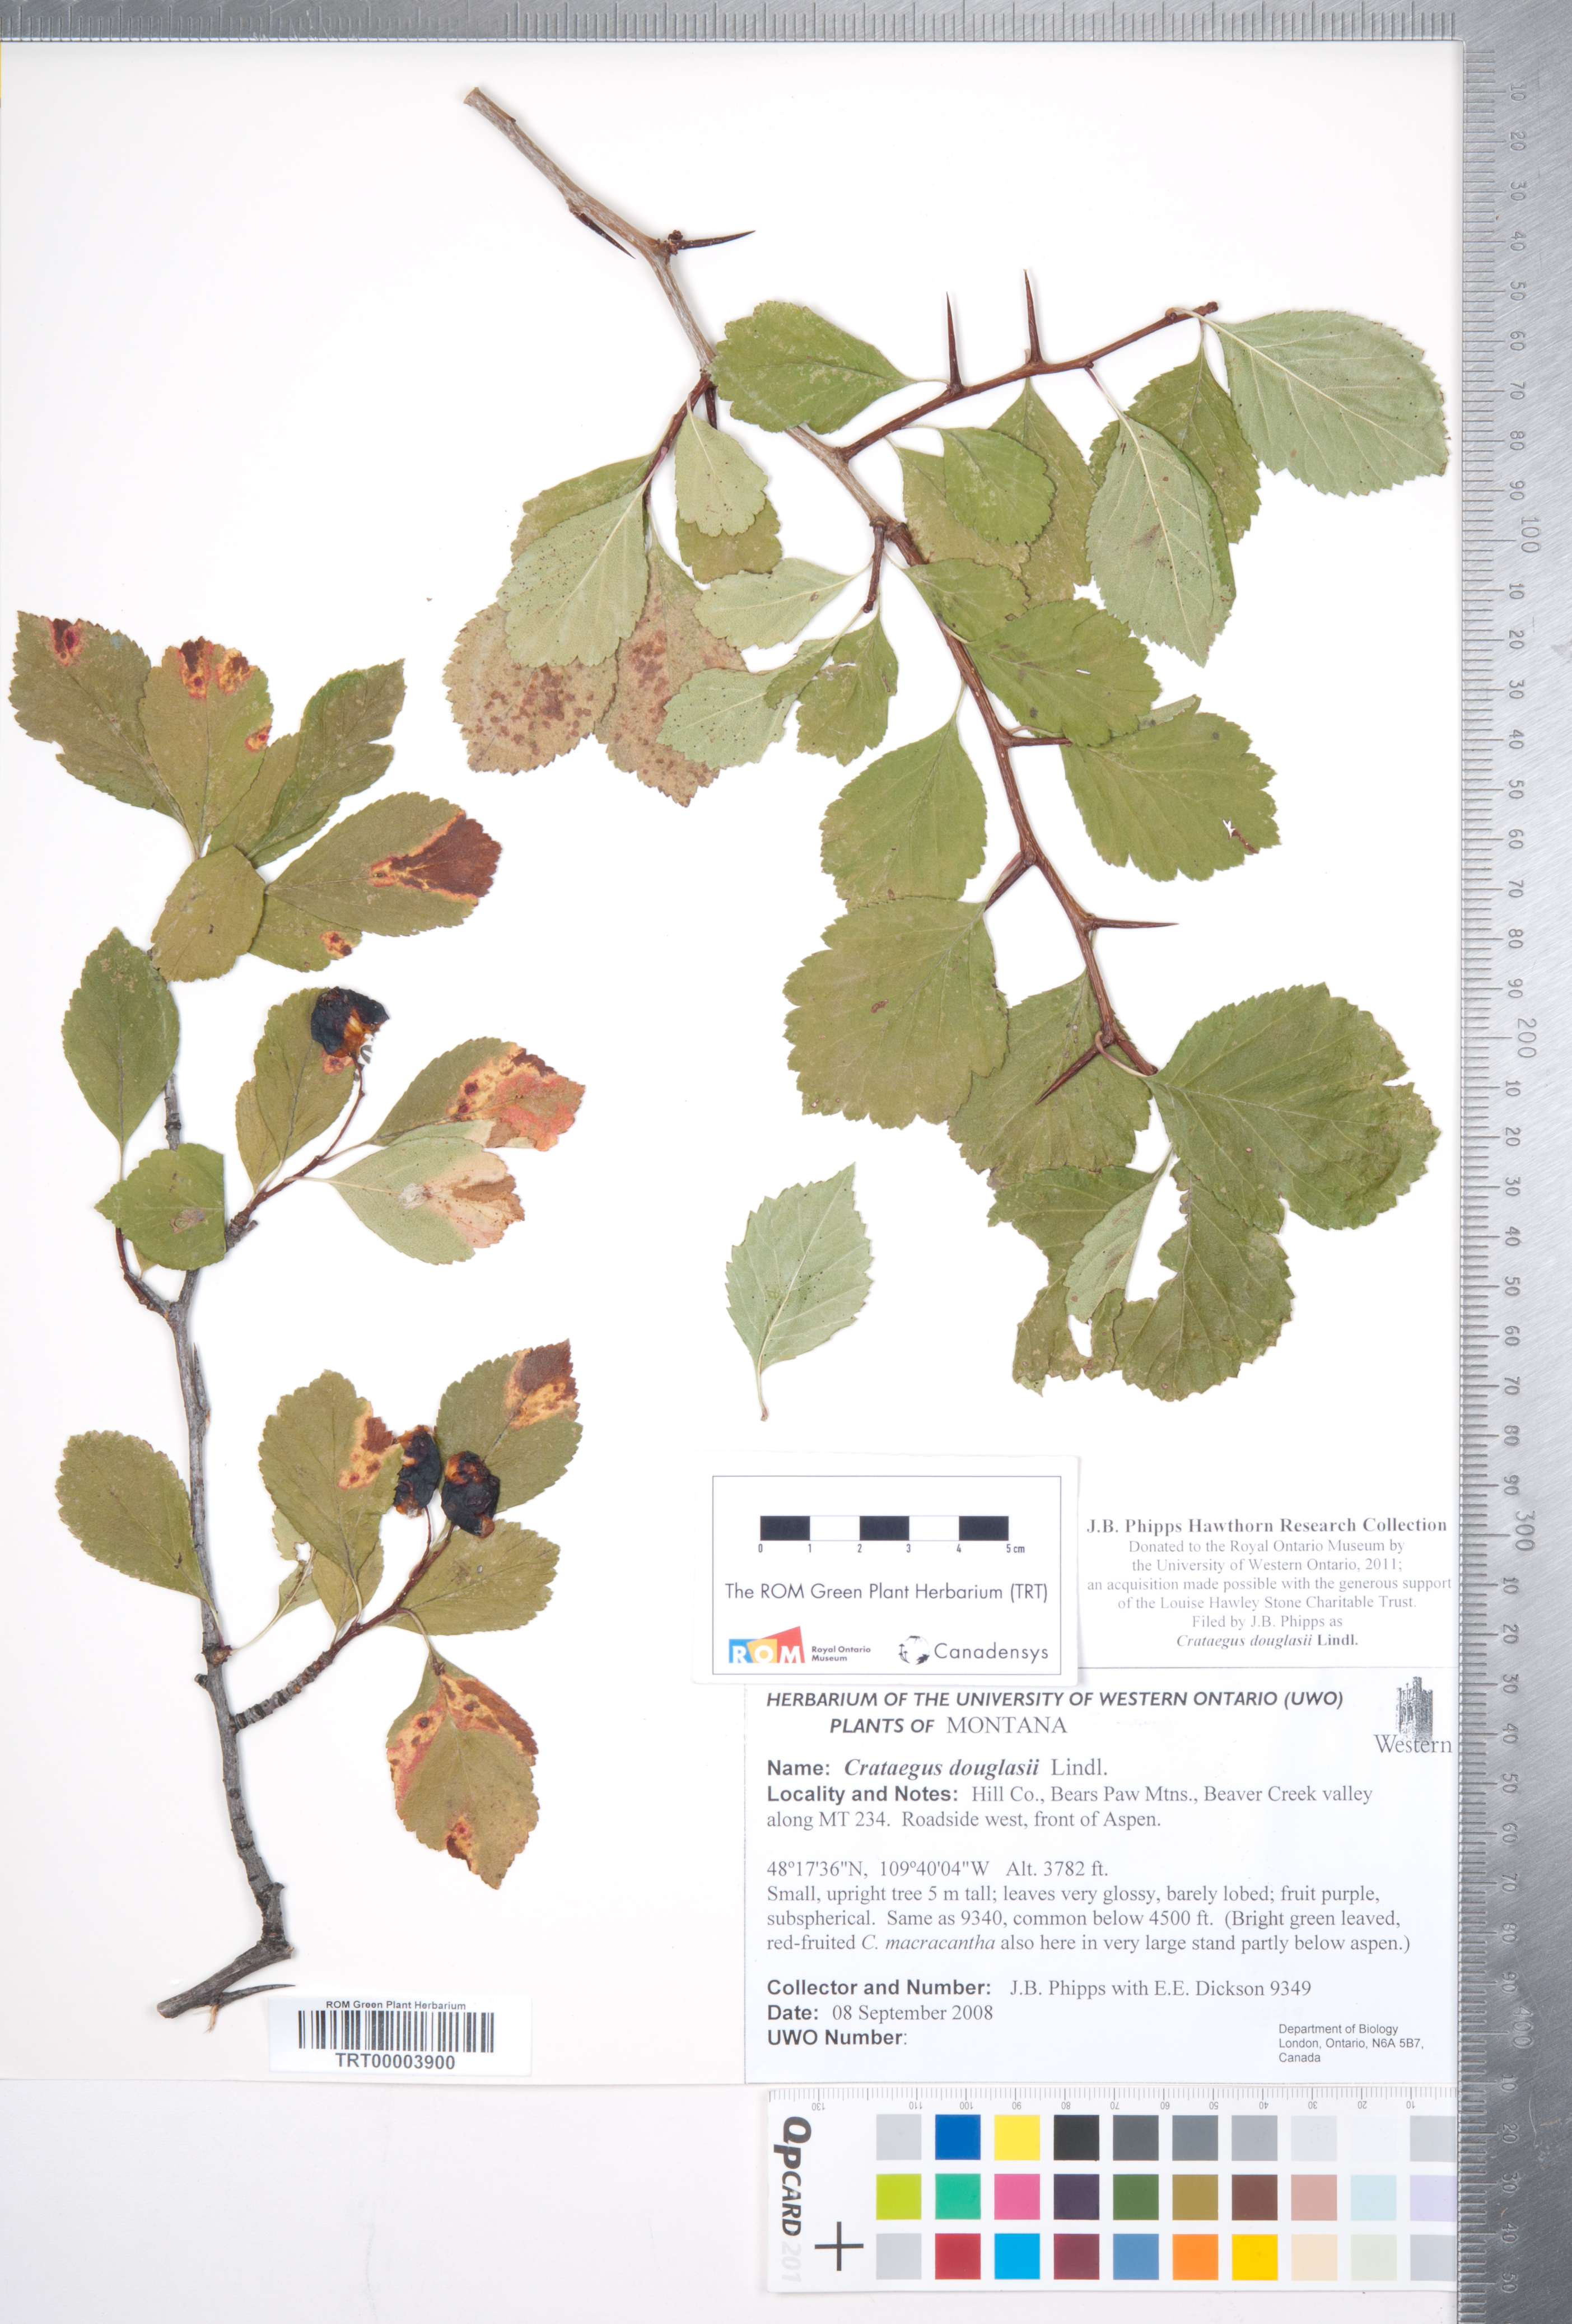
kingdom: Plantae
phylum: Tracheophyta
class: Magnoliopsida
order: Rosales
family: Rosaceae
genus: Crataegus
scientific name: Crataegus douglasii
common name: Black hawthorn
